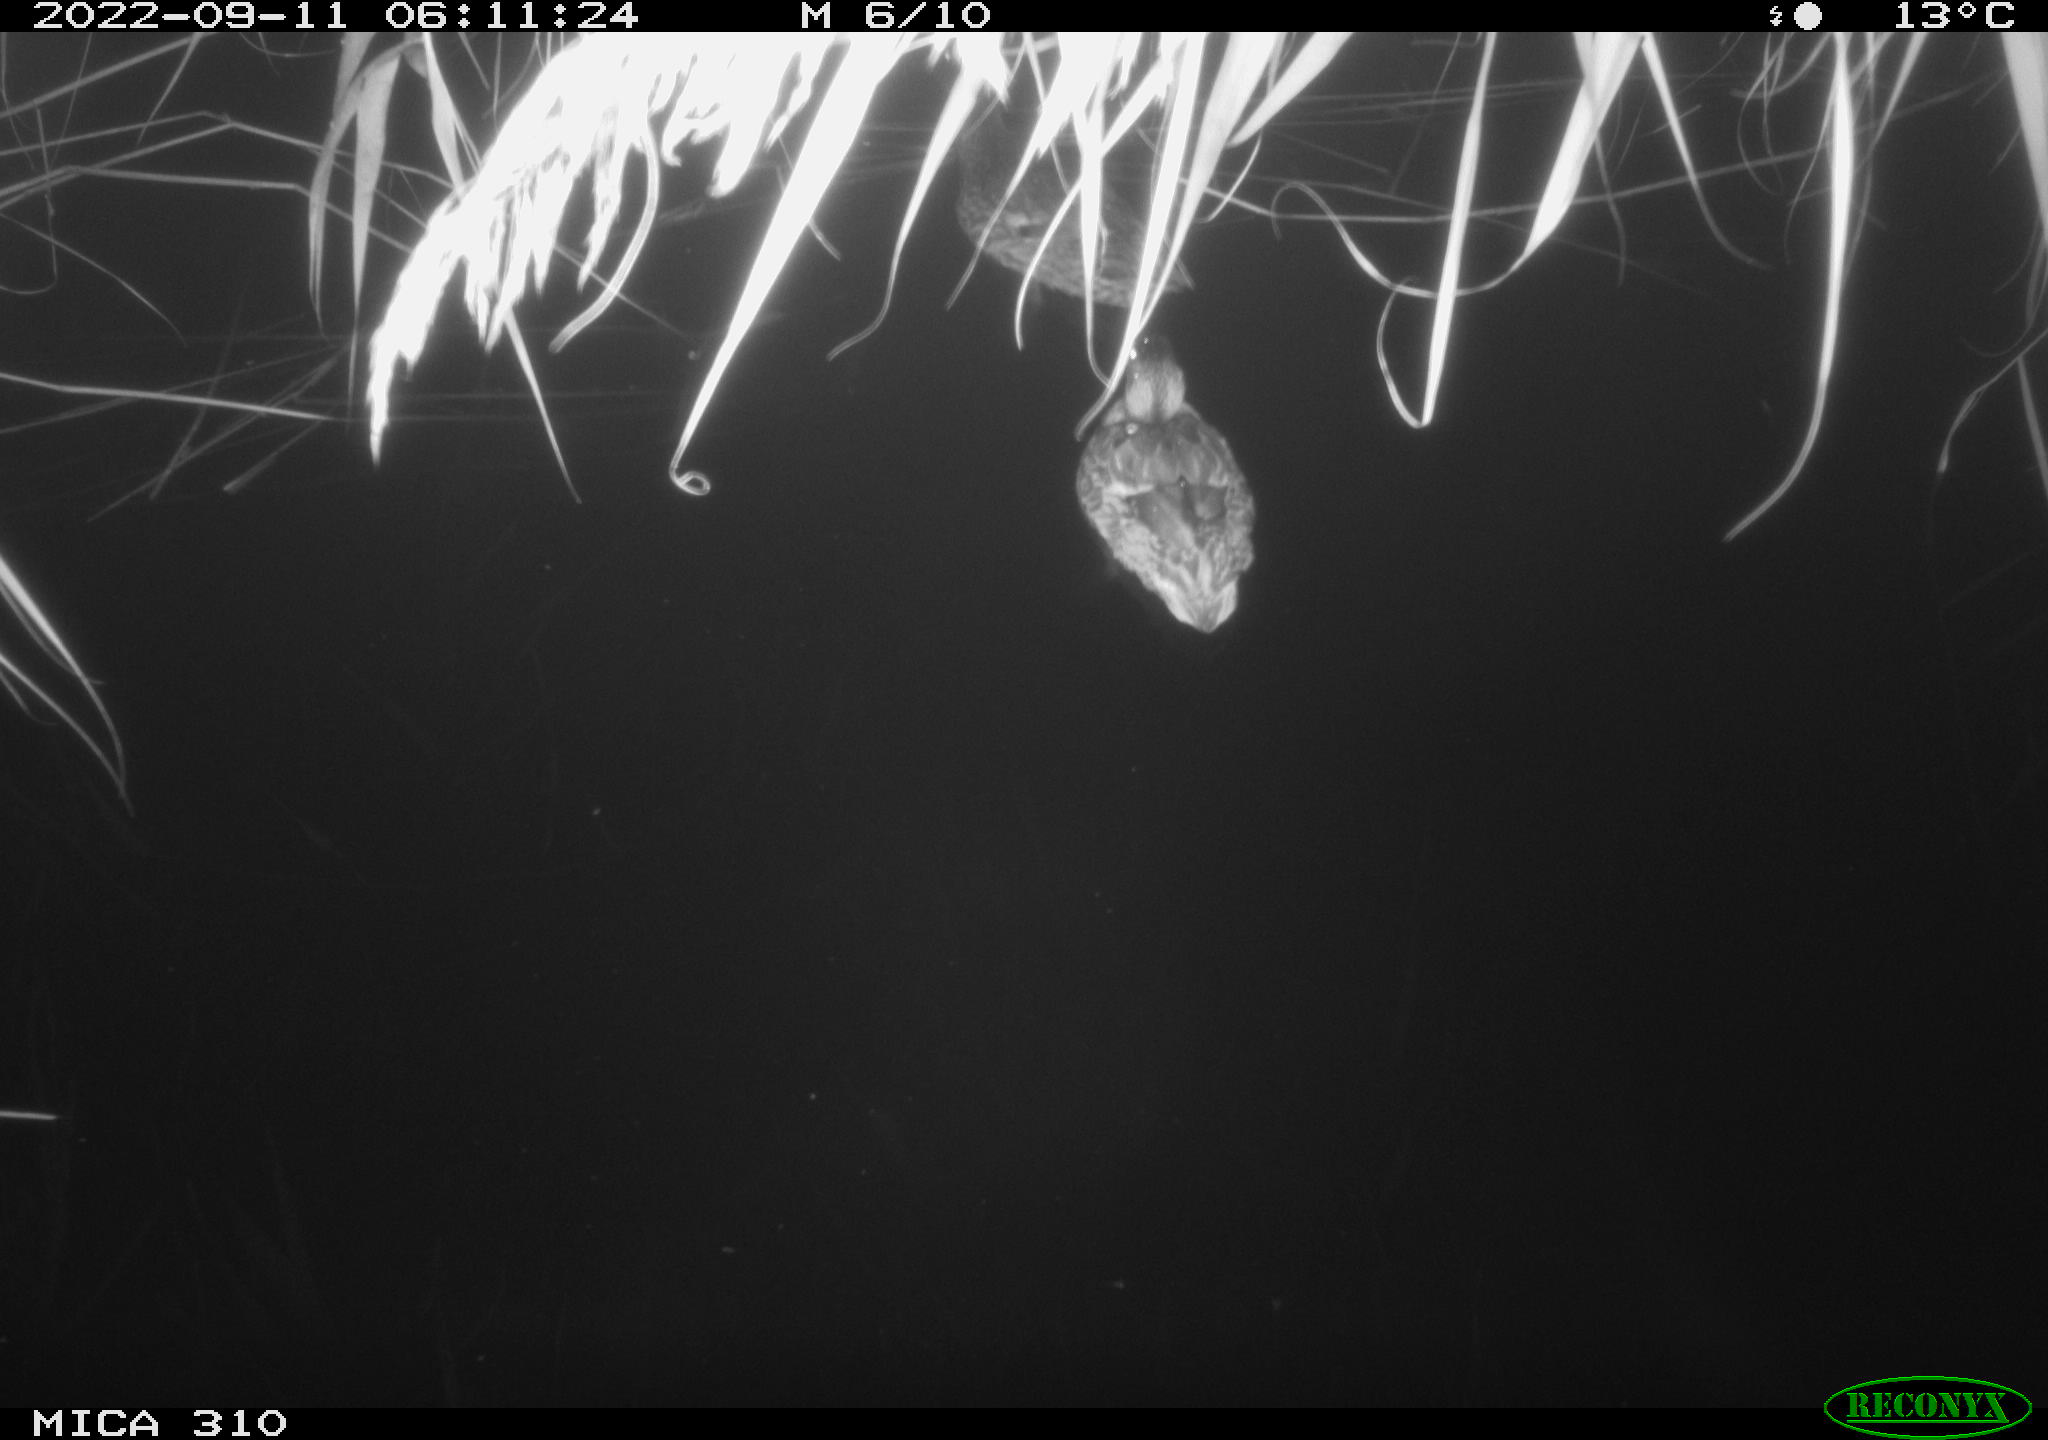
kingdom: Animalia
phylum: Chordata
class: Aves
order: Anseriformes
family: Anatidae
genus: Anas
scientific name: Anas
